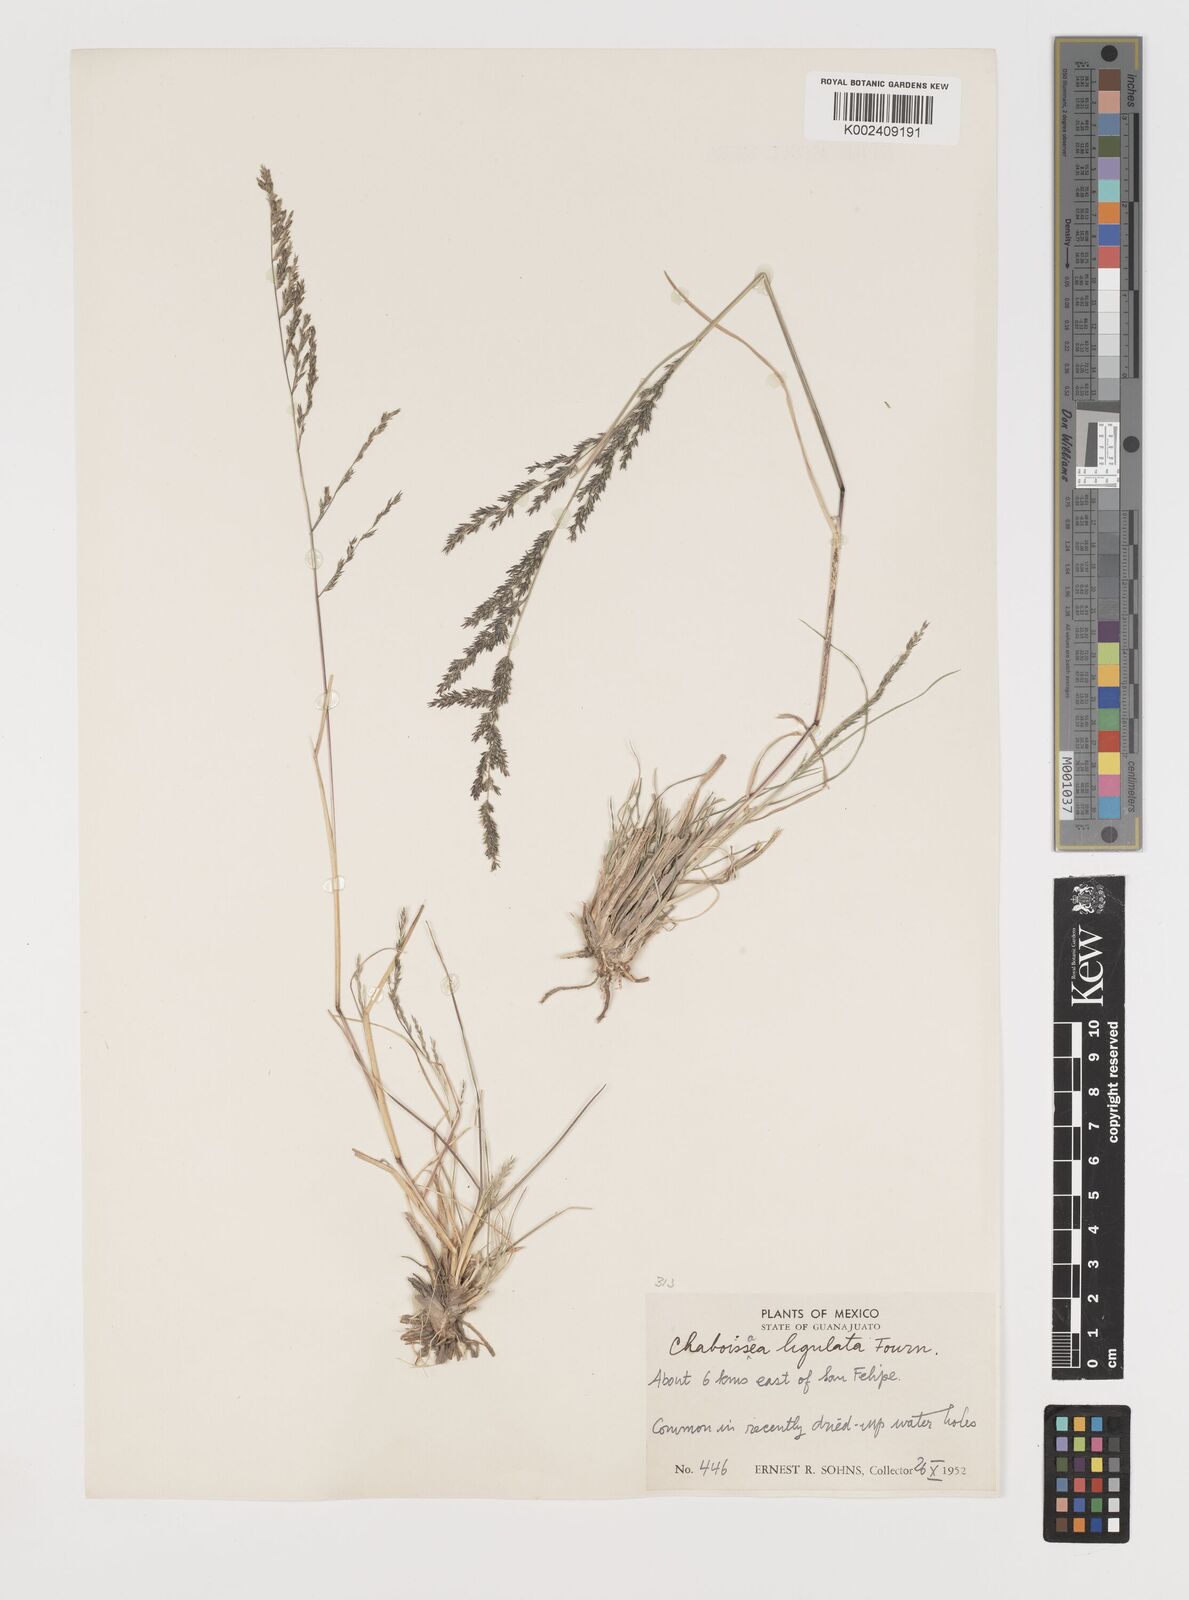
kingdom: Plantae
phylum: Tracheophyta
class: Liliopsida
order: Poales
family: Poaceae
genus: Muhlenbergia
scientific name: Muhlenbergia ligulata
